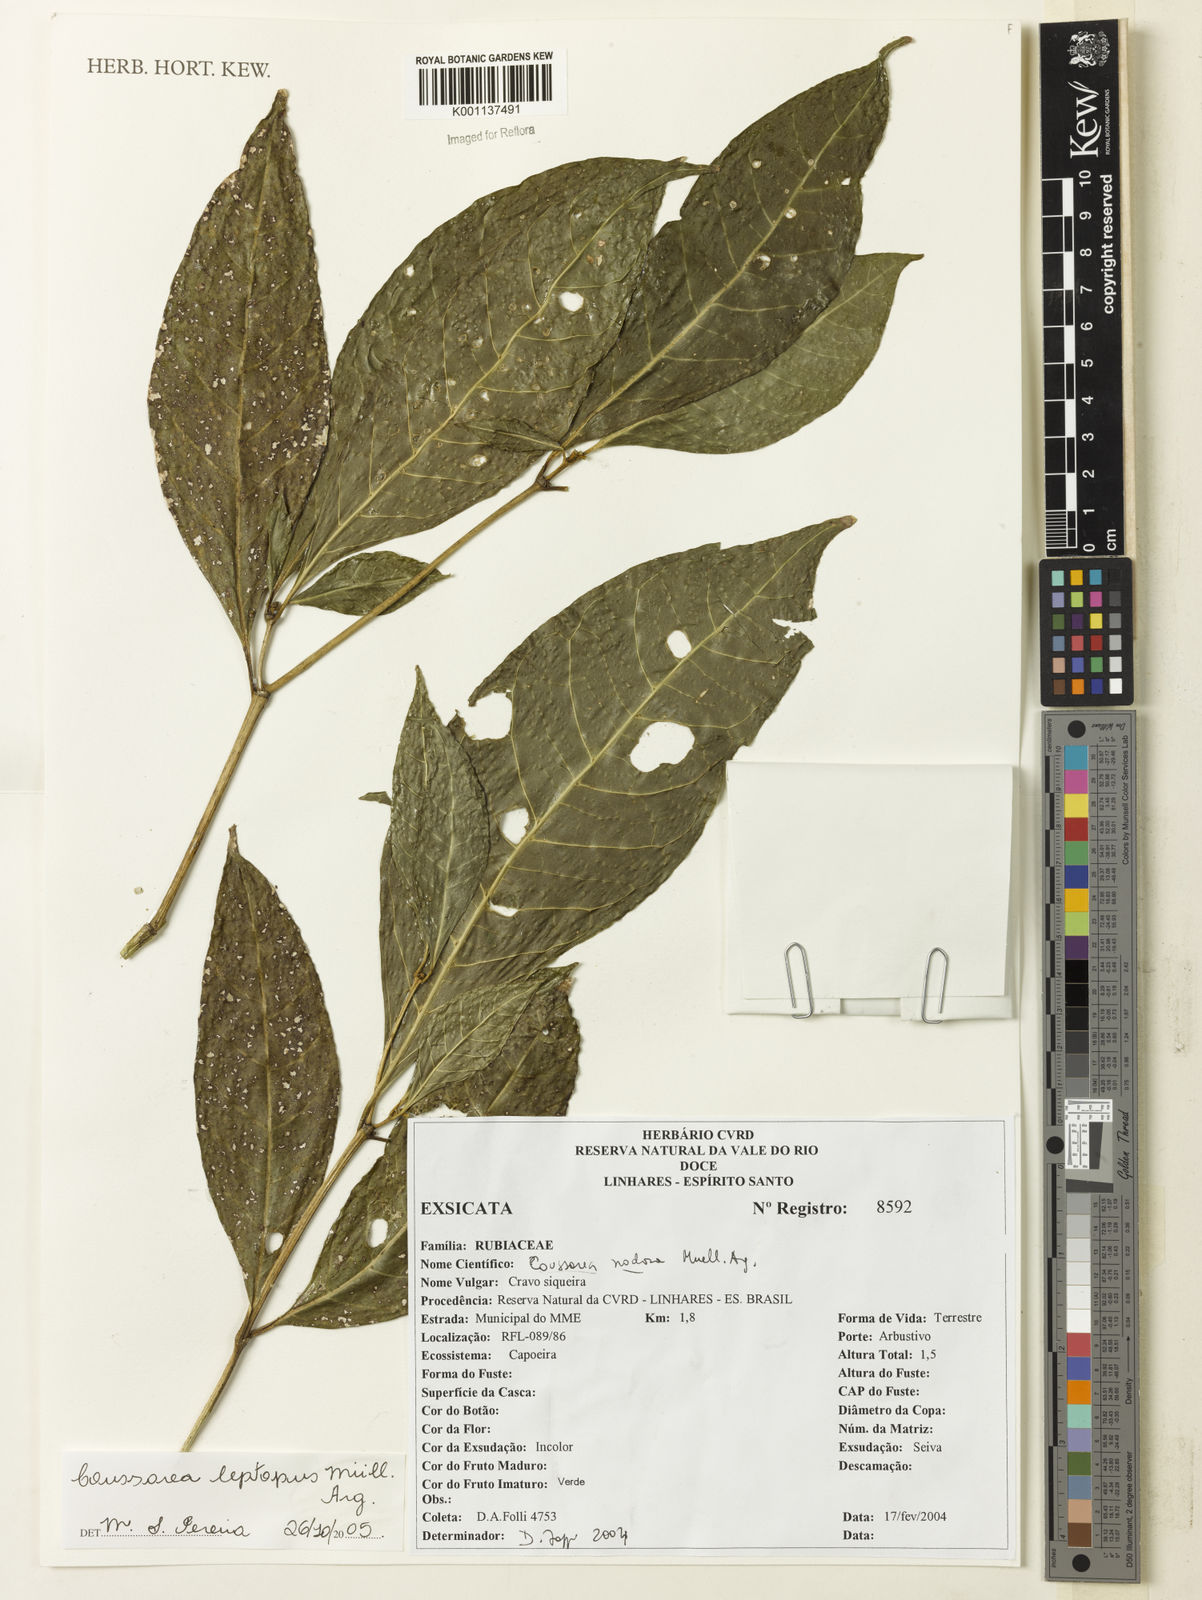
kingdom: Plantae
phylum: Tracheophyta
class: Magnoliopsida
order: Gentianales
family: Rubiaceae
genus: Coussarea
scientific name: Coussarea
